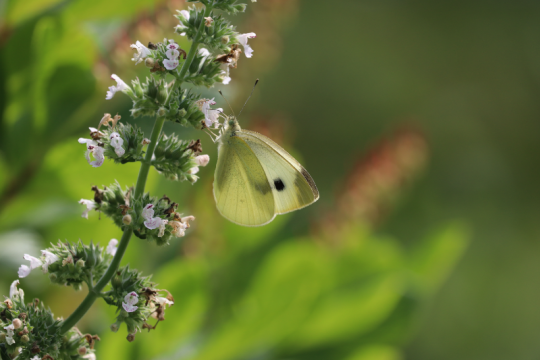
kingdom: Animalia
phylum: Arthropoda
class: Insecta
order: Lepidoptera
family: Pieridae
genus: Pieris
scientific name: Pieris rapae
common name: Cabbage White
